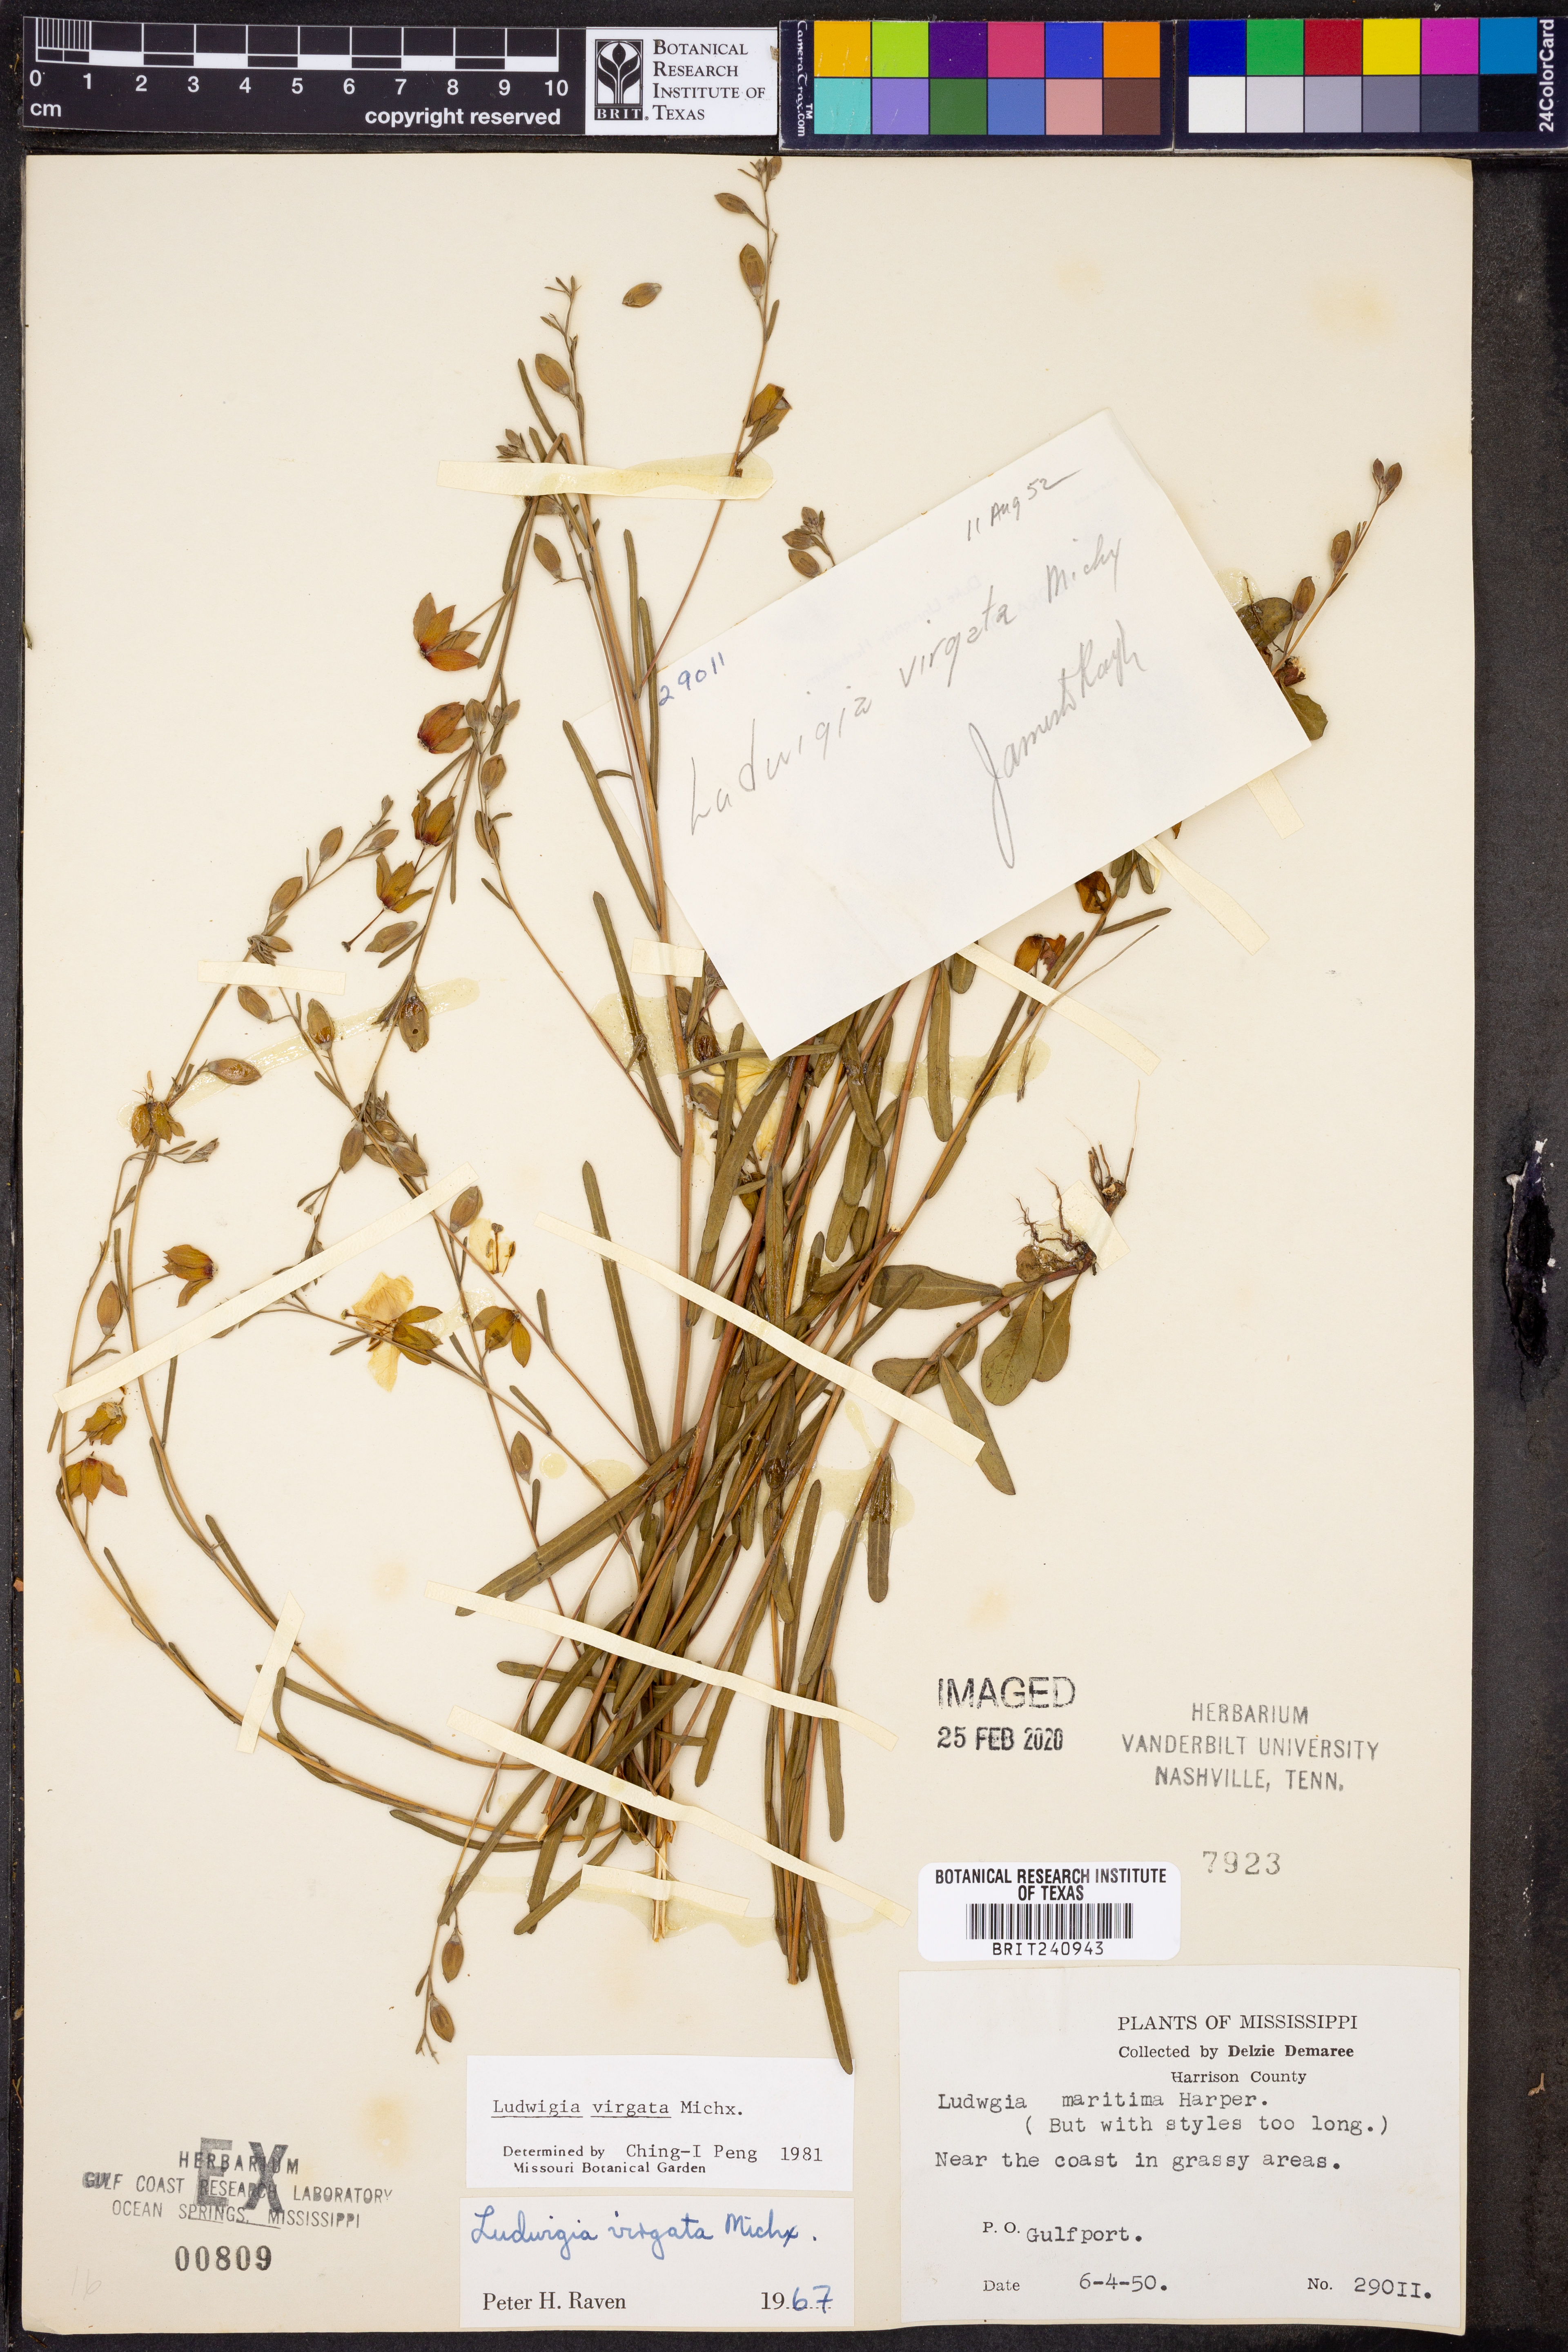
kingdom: Plantae
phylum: Tracheophyta
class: Magnoliopsida
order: Myrtales
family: Onagraceae
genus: Ludwigia
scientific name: Ludwigia virgata
